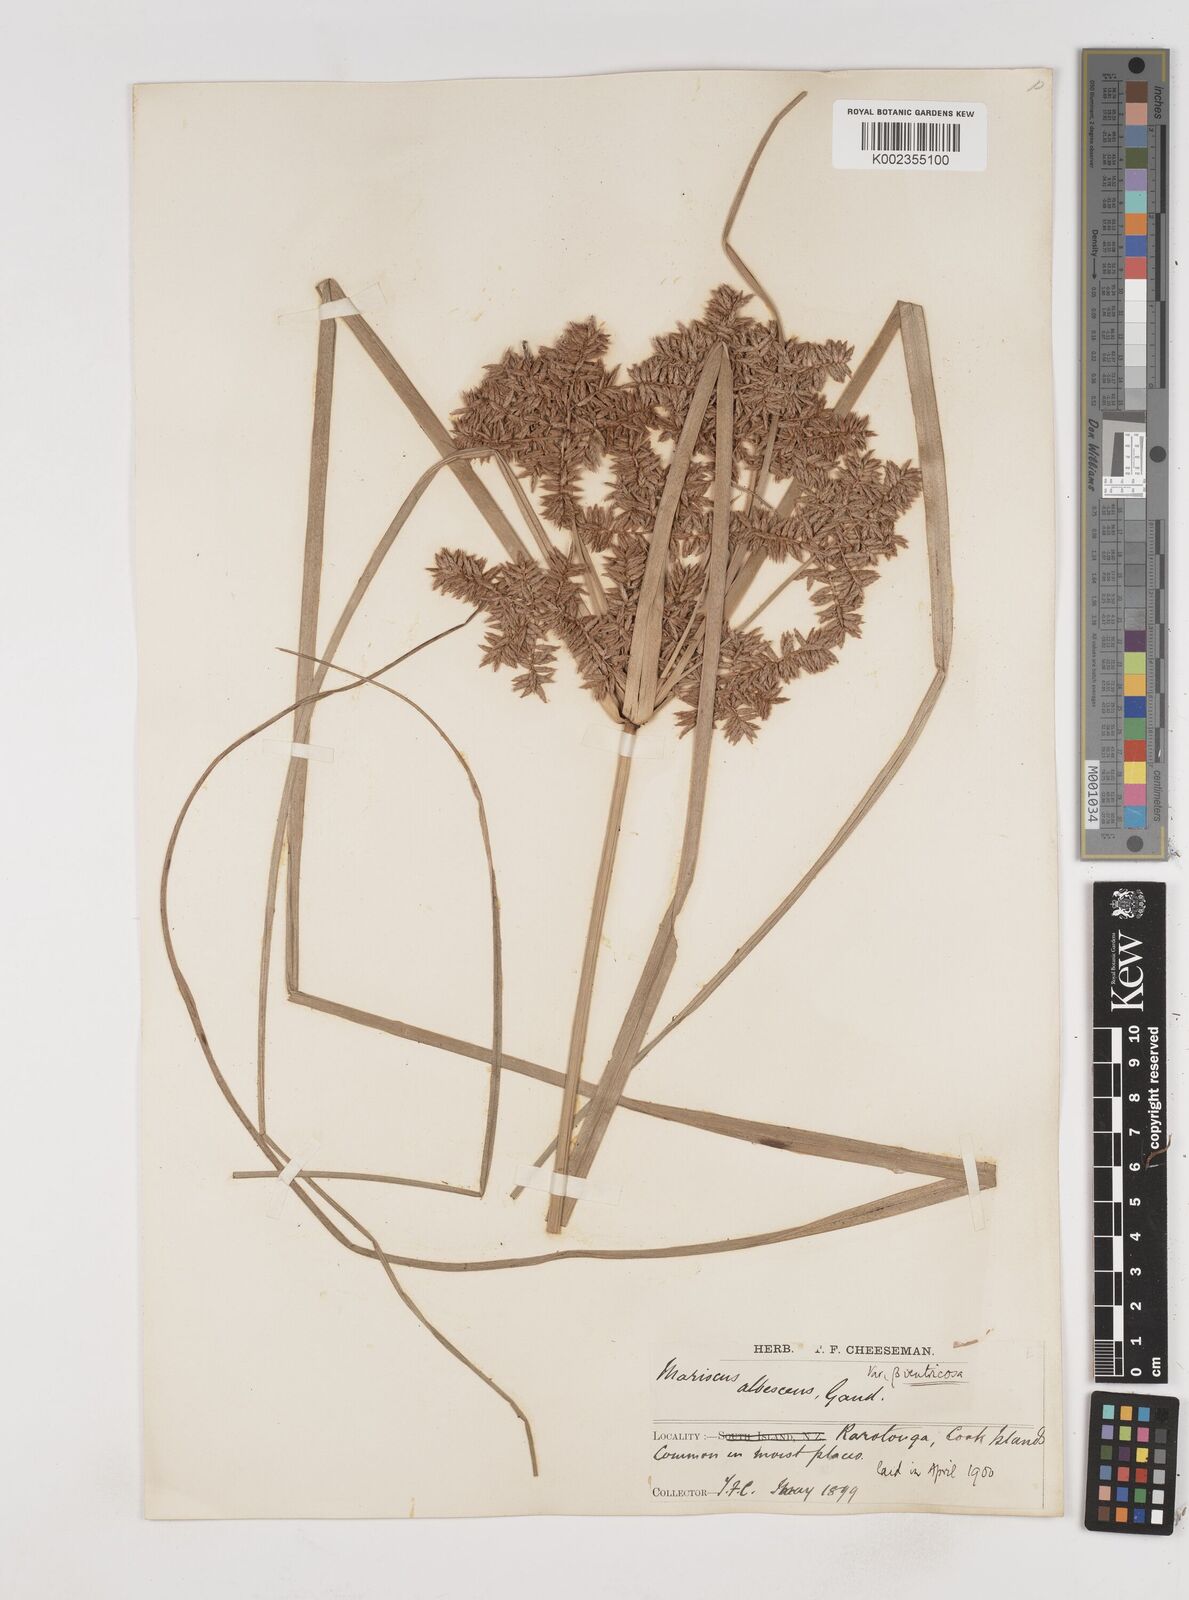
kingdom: Plantae
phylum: Tracheophyta
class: Liliopsida
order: Poales
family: Cyperaceae
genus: Cyperus
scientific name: Cyperus javanicus
